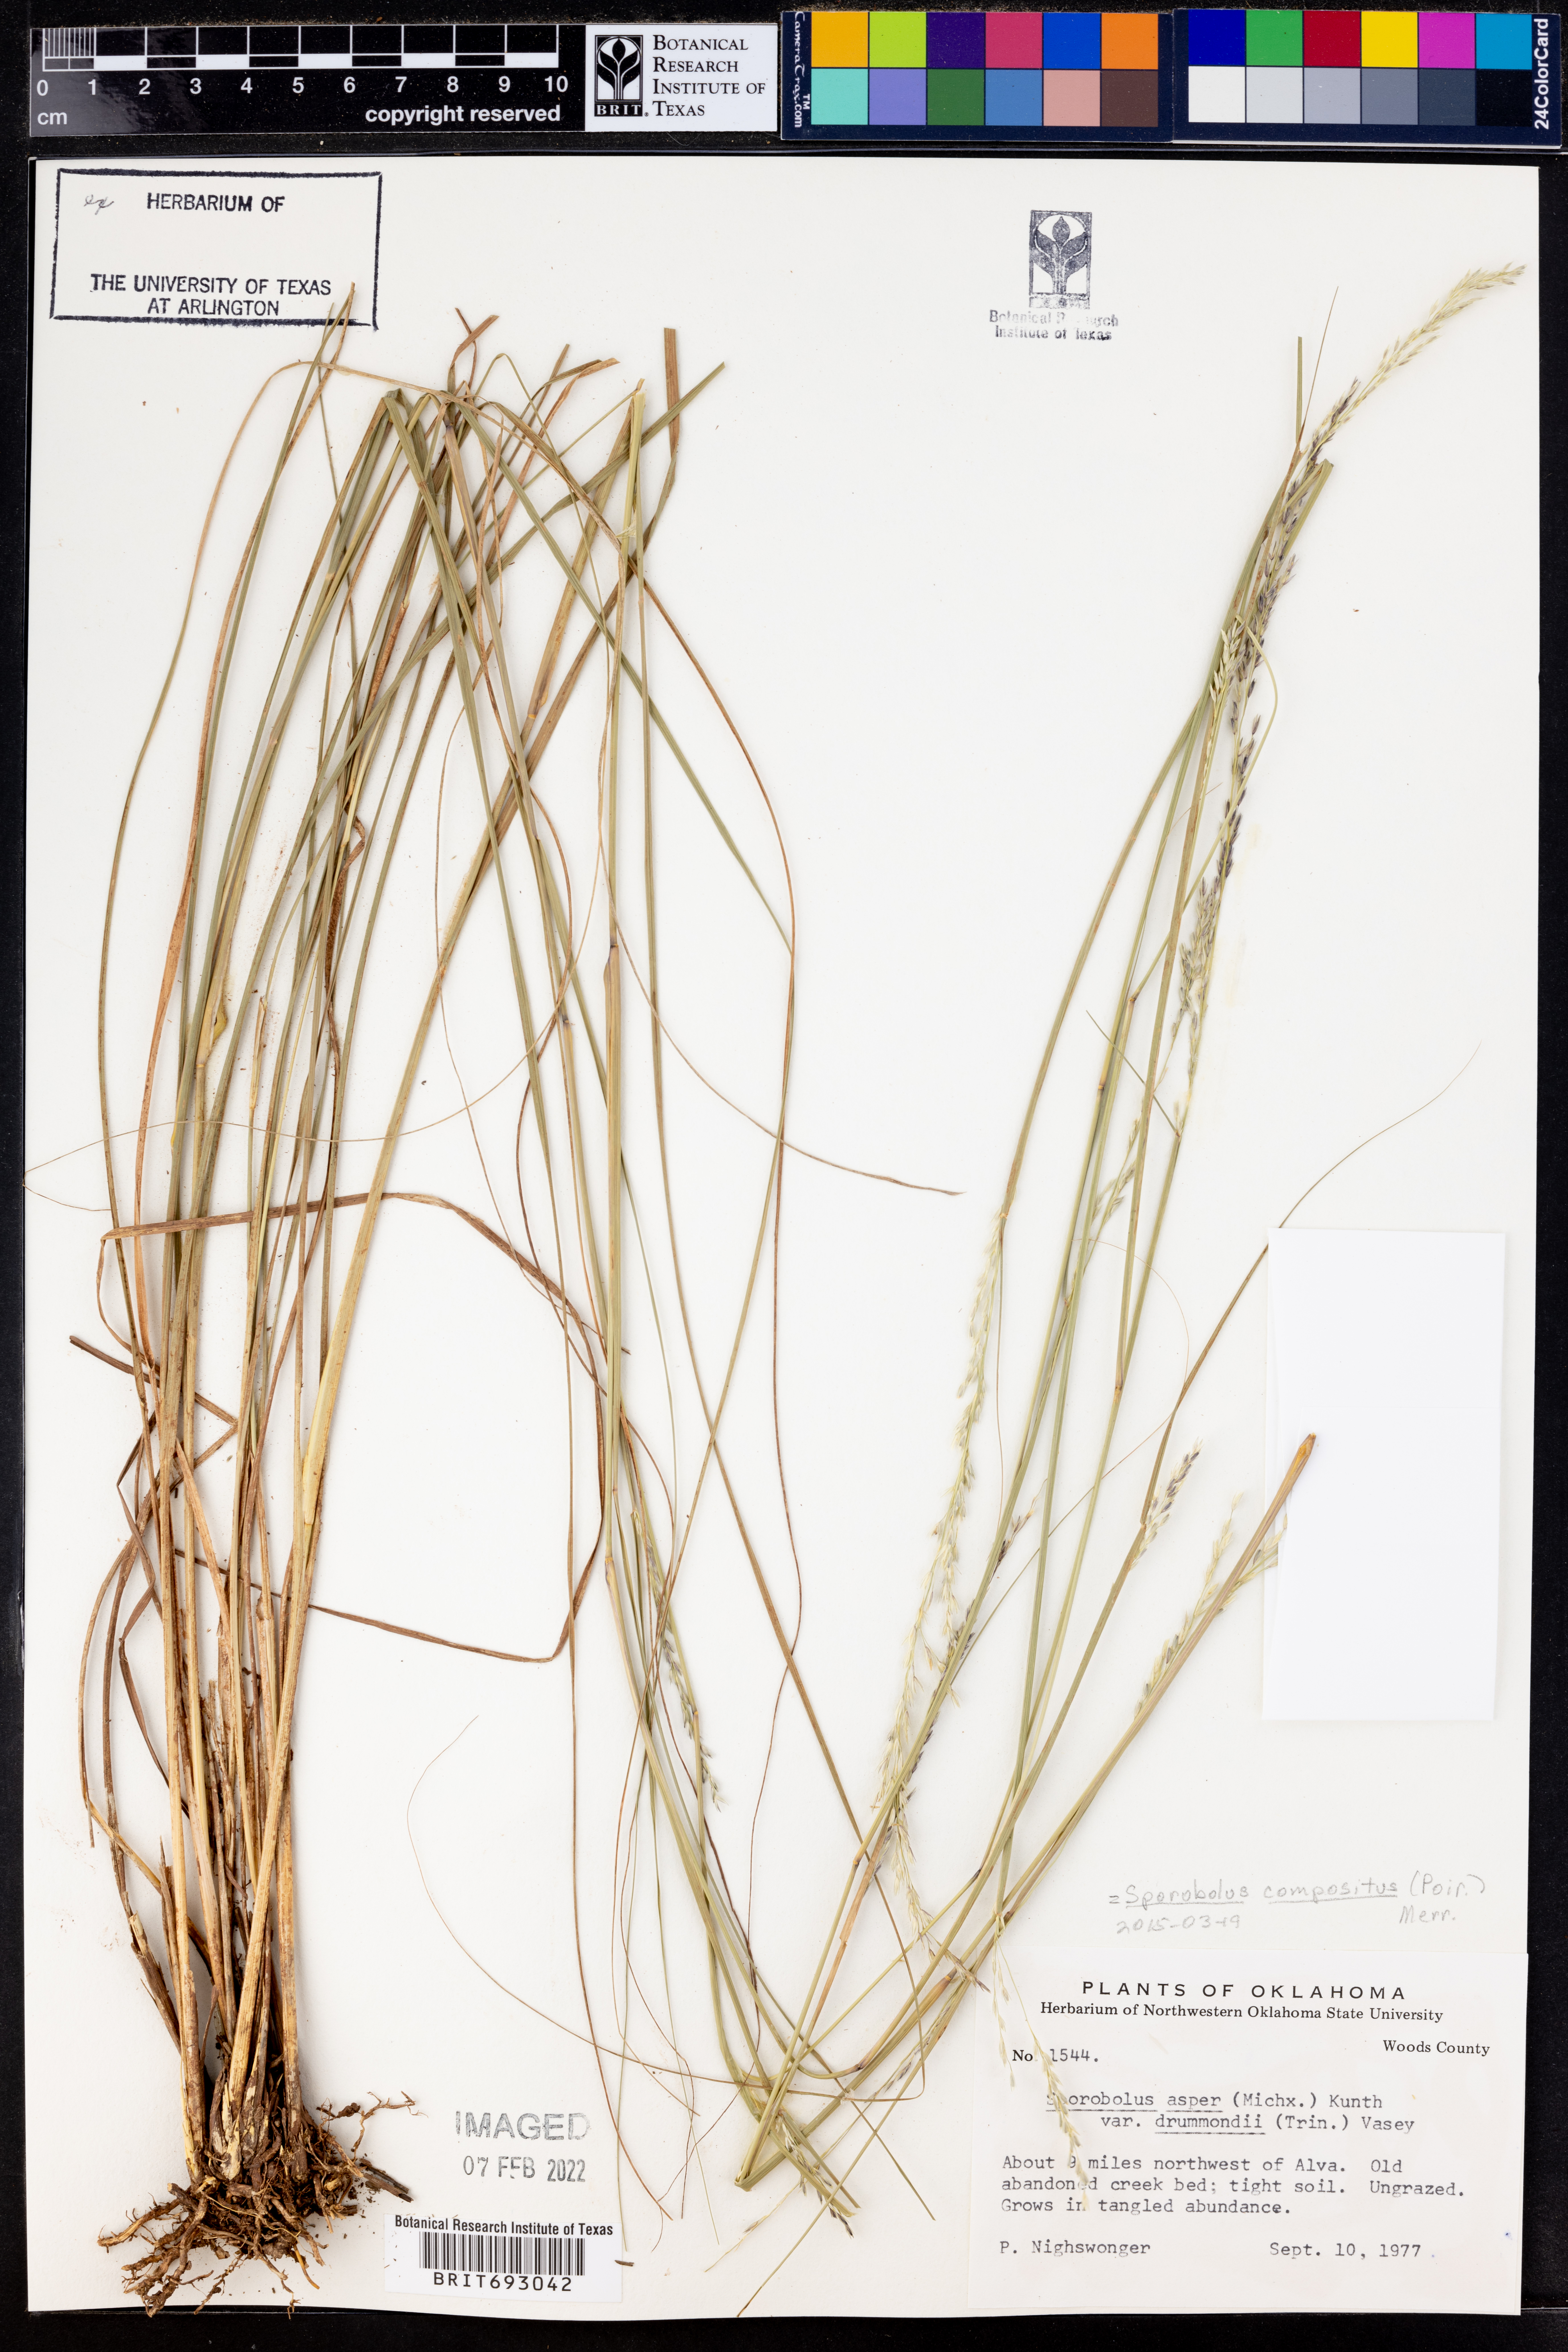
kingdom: Plantae
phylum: Tracheophyta
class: Liliopsida
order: Poales
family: Poaceae
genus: Sporobolus
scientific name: Sporobolus compositus
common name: Rough dropseed
